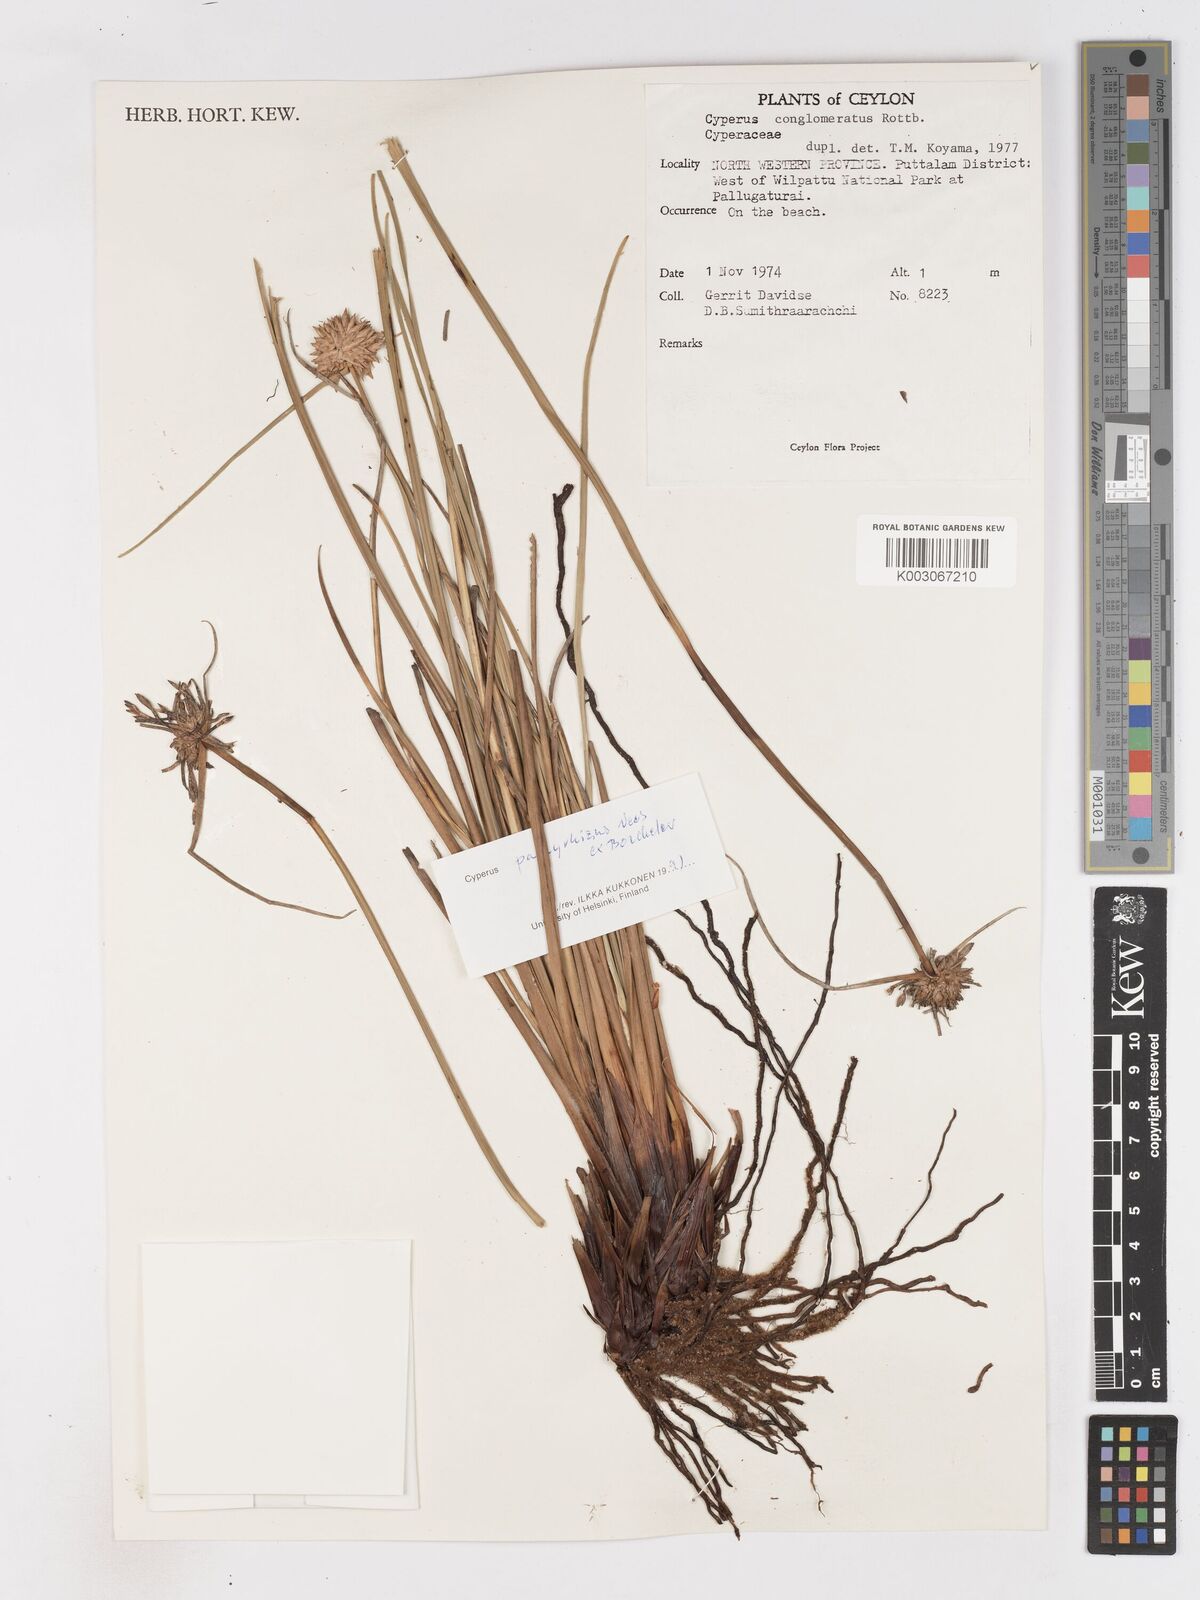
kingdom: Plantae
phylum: Tracheophyta
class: Liliopsida
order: Poales
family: Cyperaceae
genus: Cyperus
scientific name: Cyperus conglomeratus
